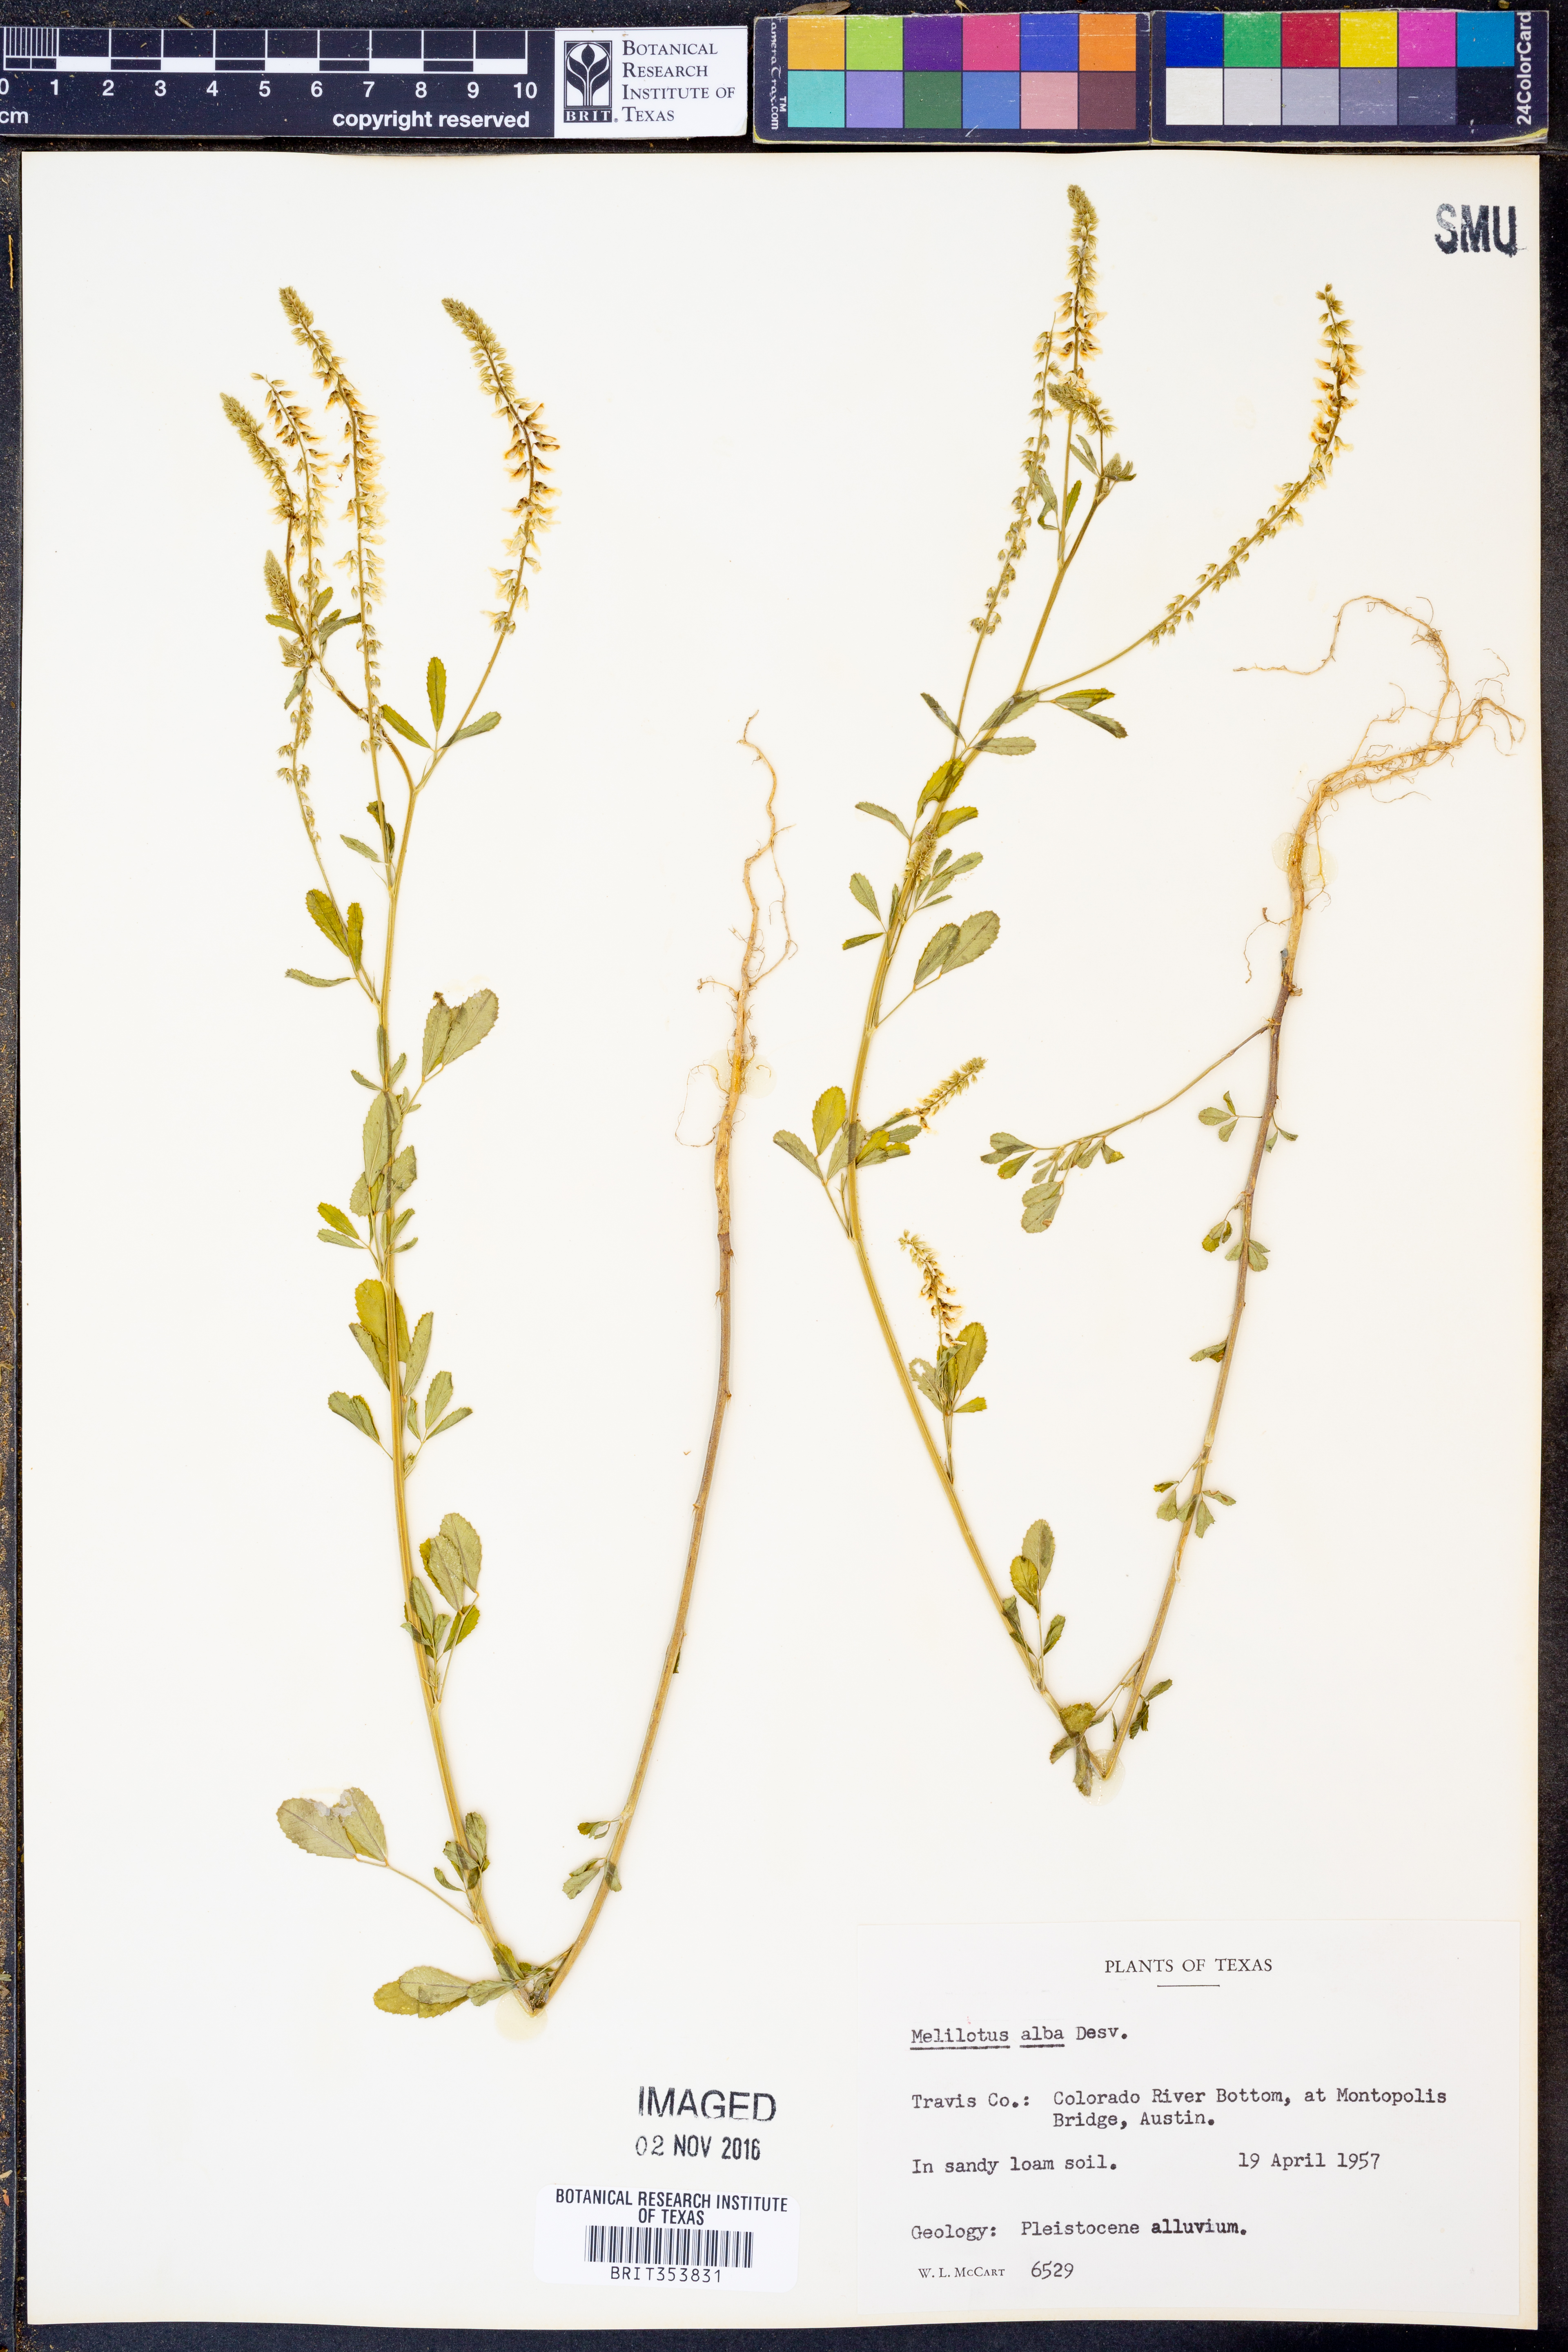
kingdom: Plantae
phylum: Tracheophyta
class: Magnoliopsida
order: Fabales
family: Fabaceae
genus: Melilotus
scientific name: Melilotus albus
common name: White melilot
